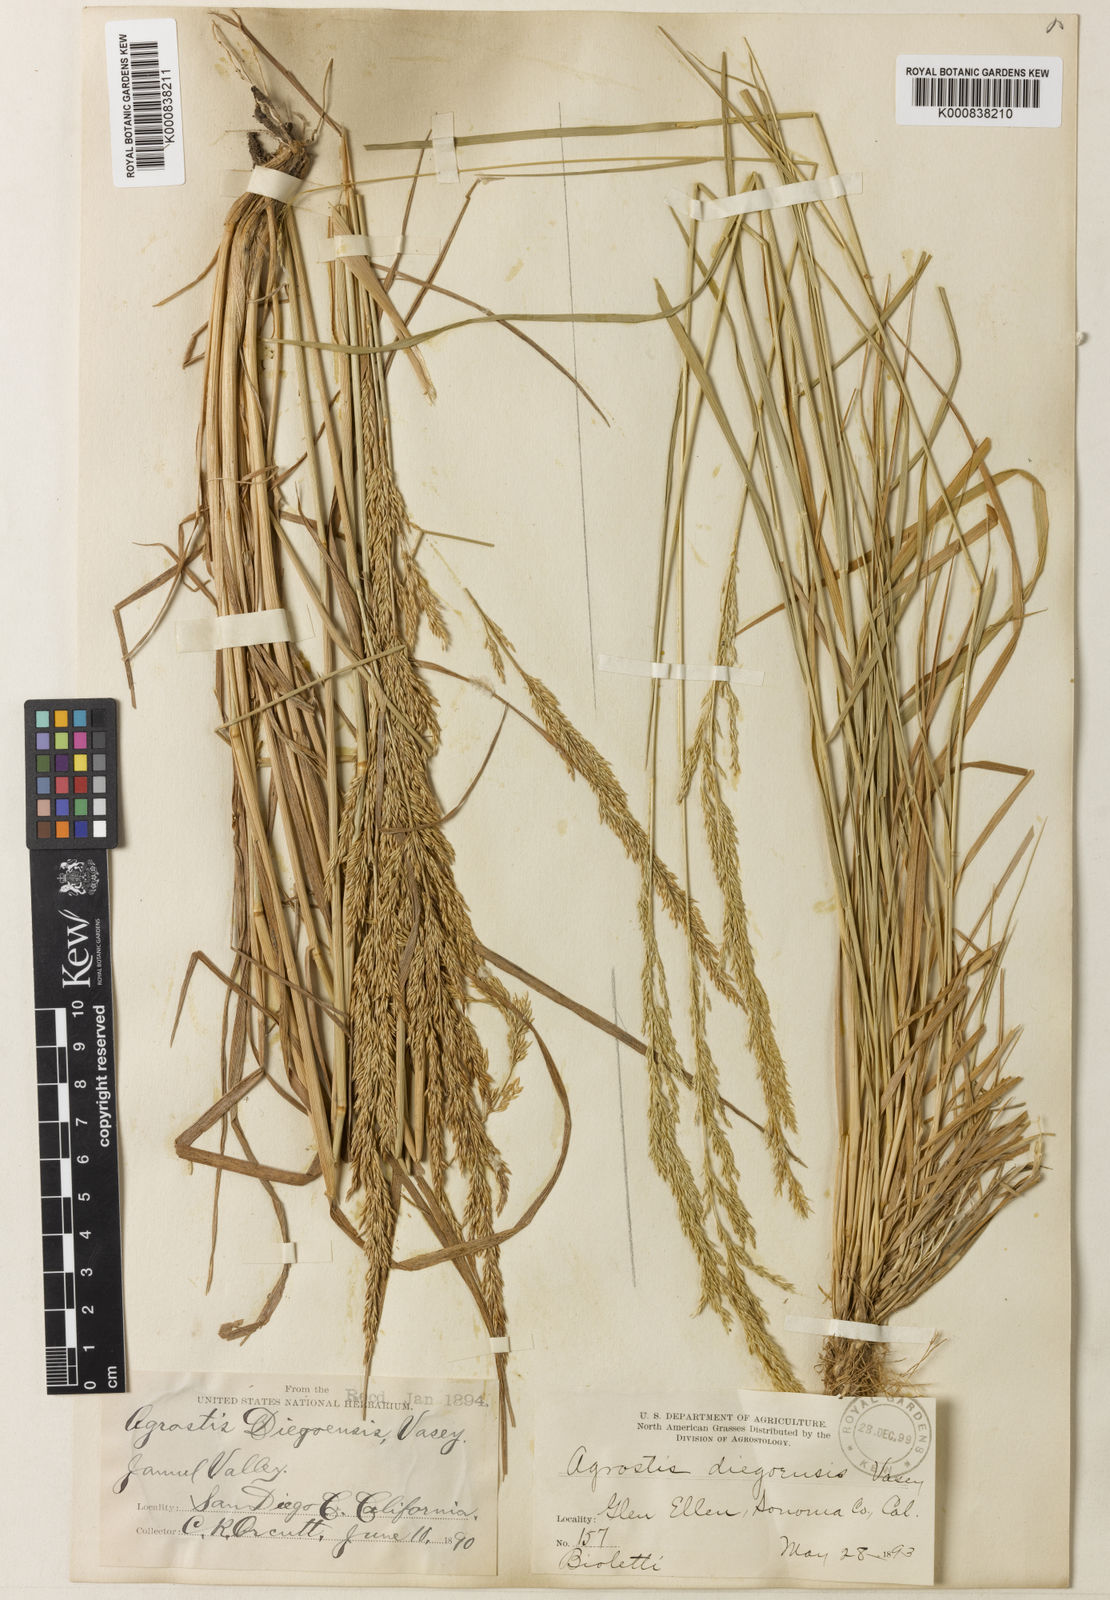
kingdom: Plantae
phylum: Tracheophyta
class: Liliopsida
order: Poales
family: Poaceae
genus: Agrostis
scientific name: Agrostis pallens
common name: Dune bent
